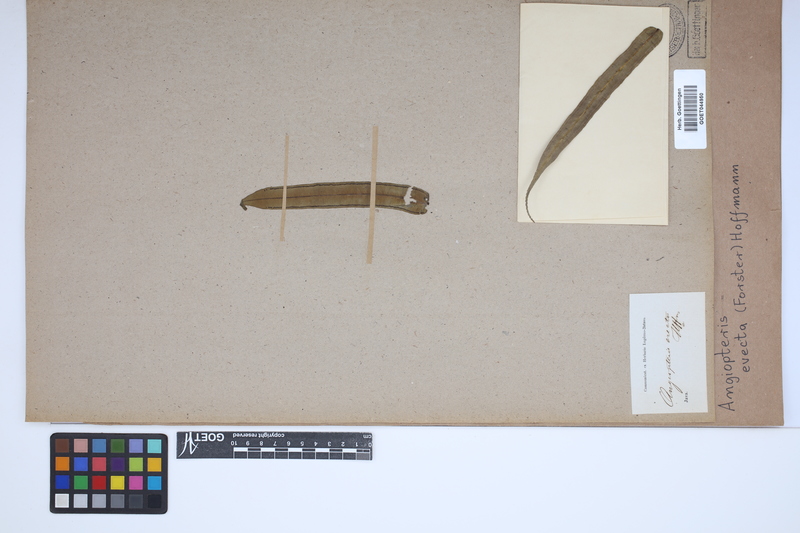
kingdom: Plantae
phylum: Tracheophyta
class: Polypodiopsida
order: Marattiales
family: Marattiaceae
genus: Angiopteris
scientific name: Angiopteris evecta
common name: Mule's-foot fern
